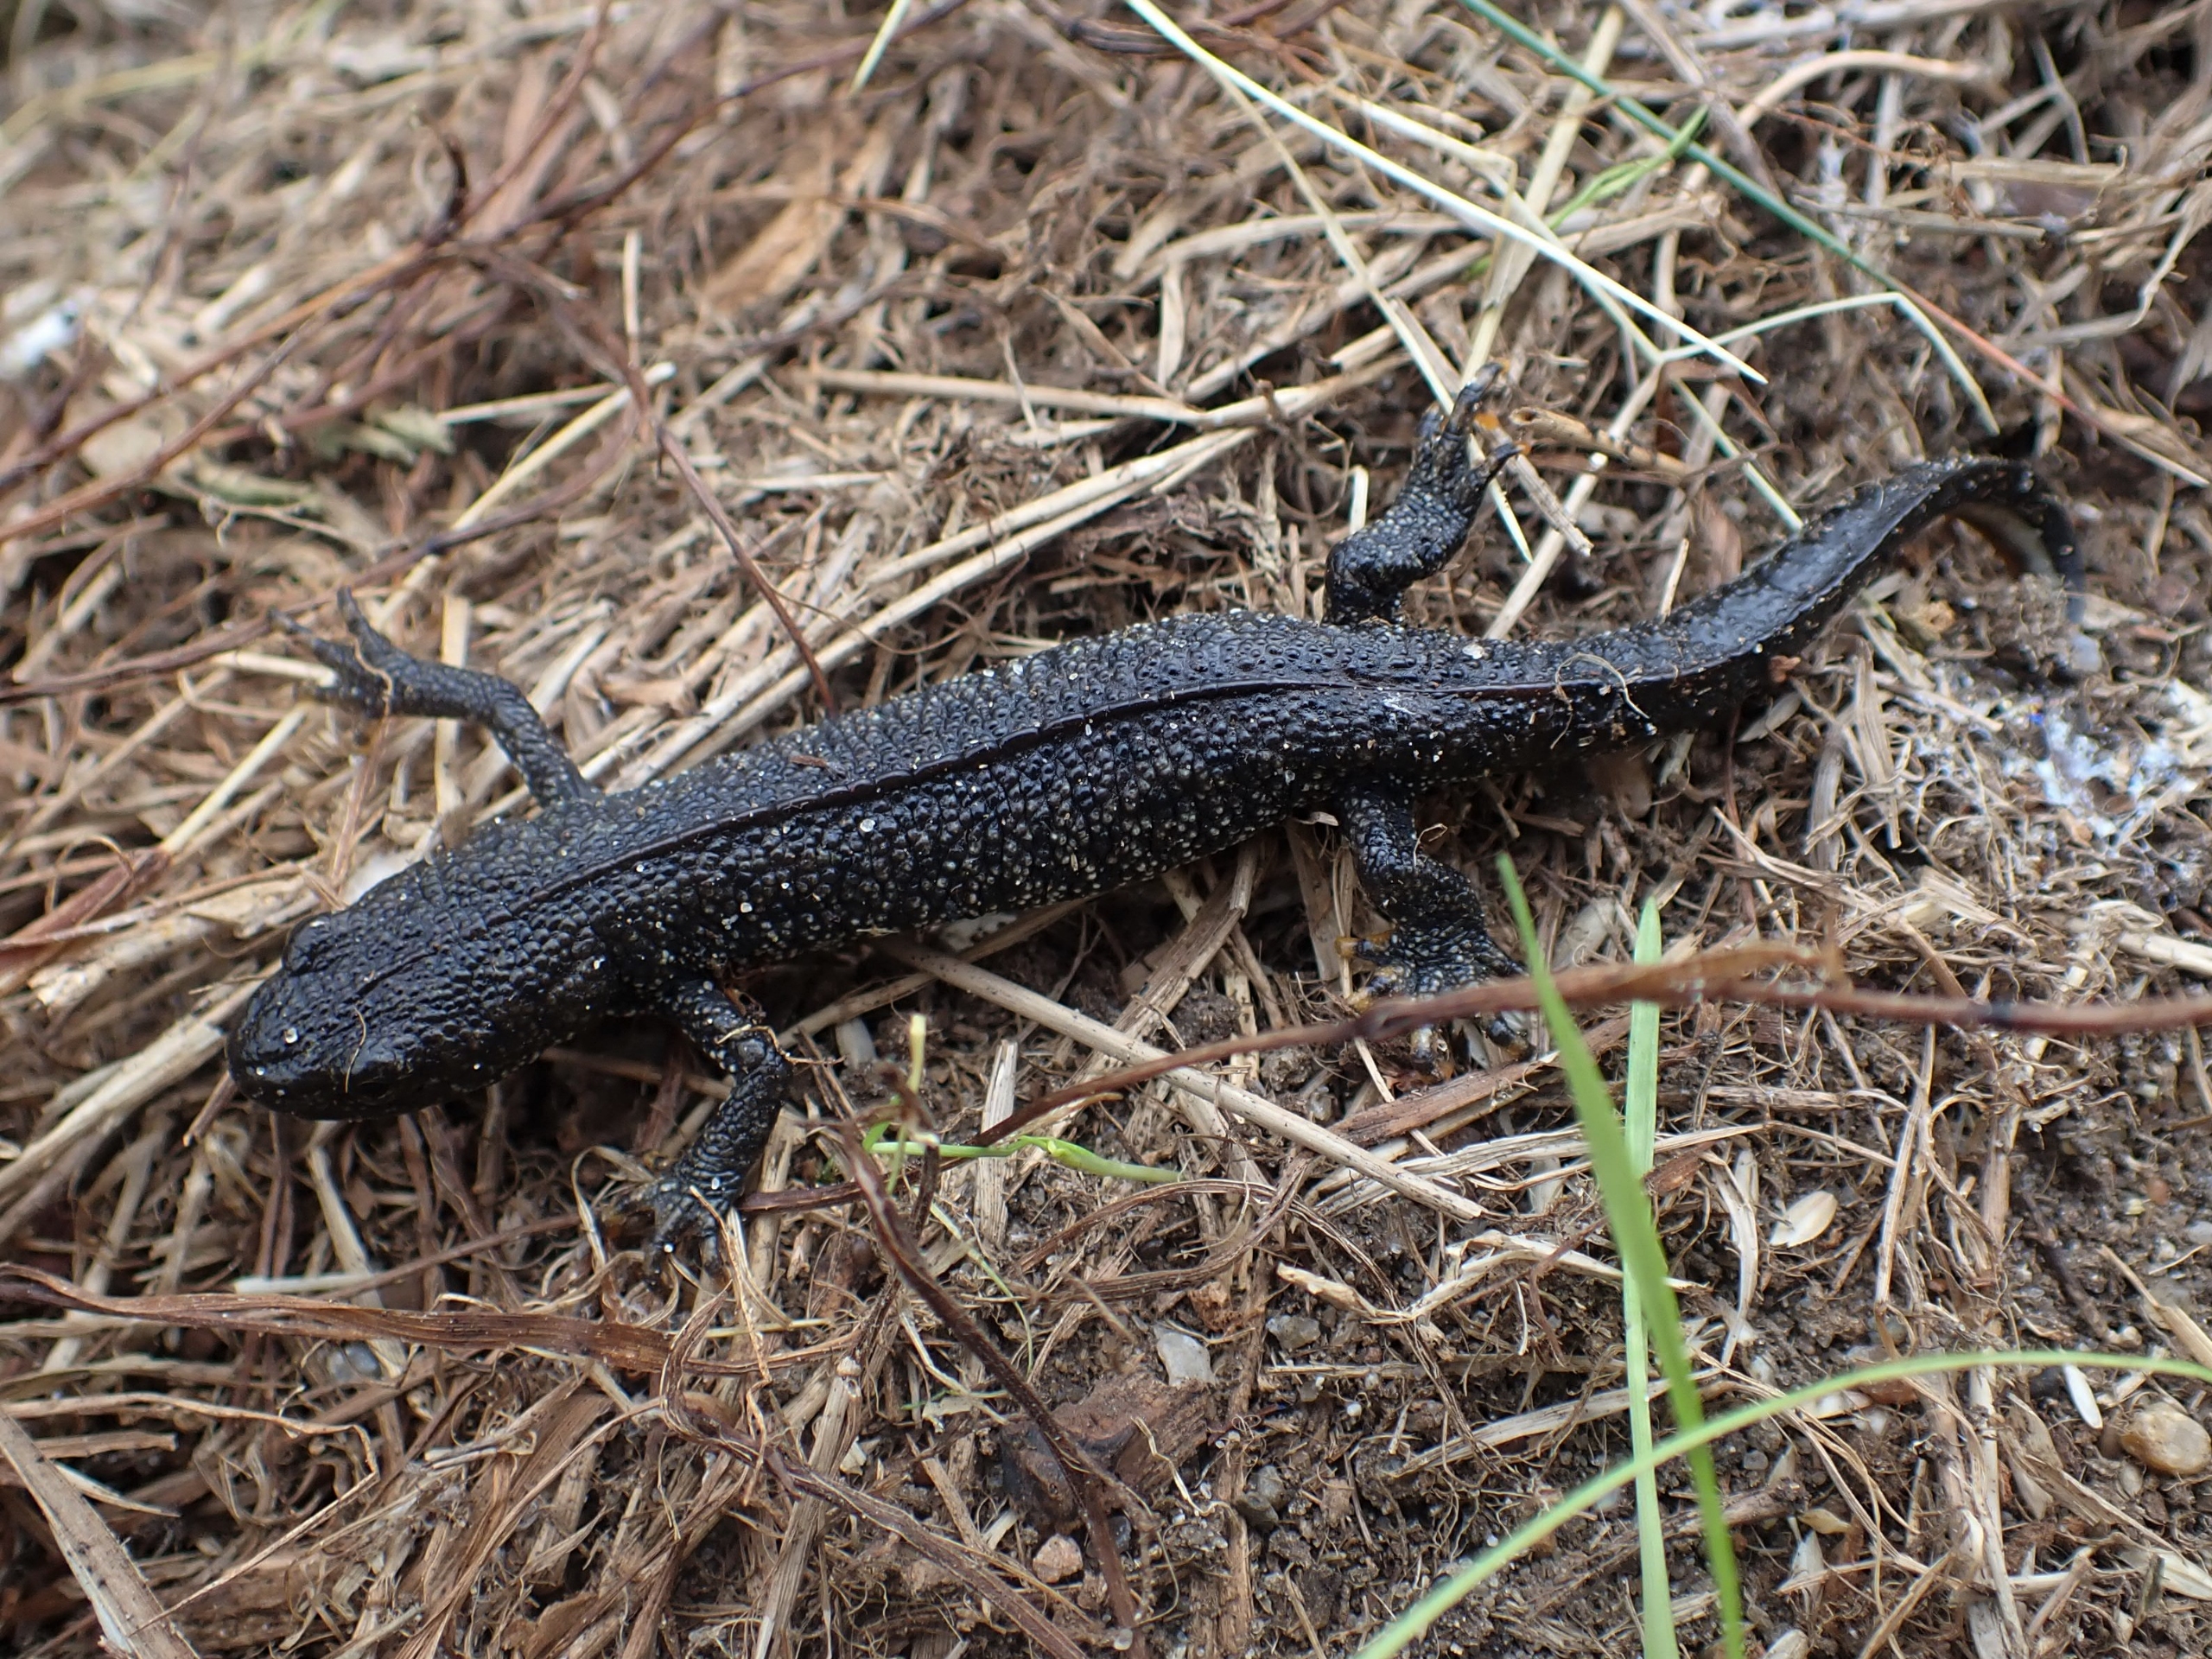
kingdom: Animalia
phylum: Chordata
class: Amphibia
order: Caudata
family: Salamandridae
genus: Triturus
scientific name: Triturus cristatus
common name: Stor vandsalamander
